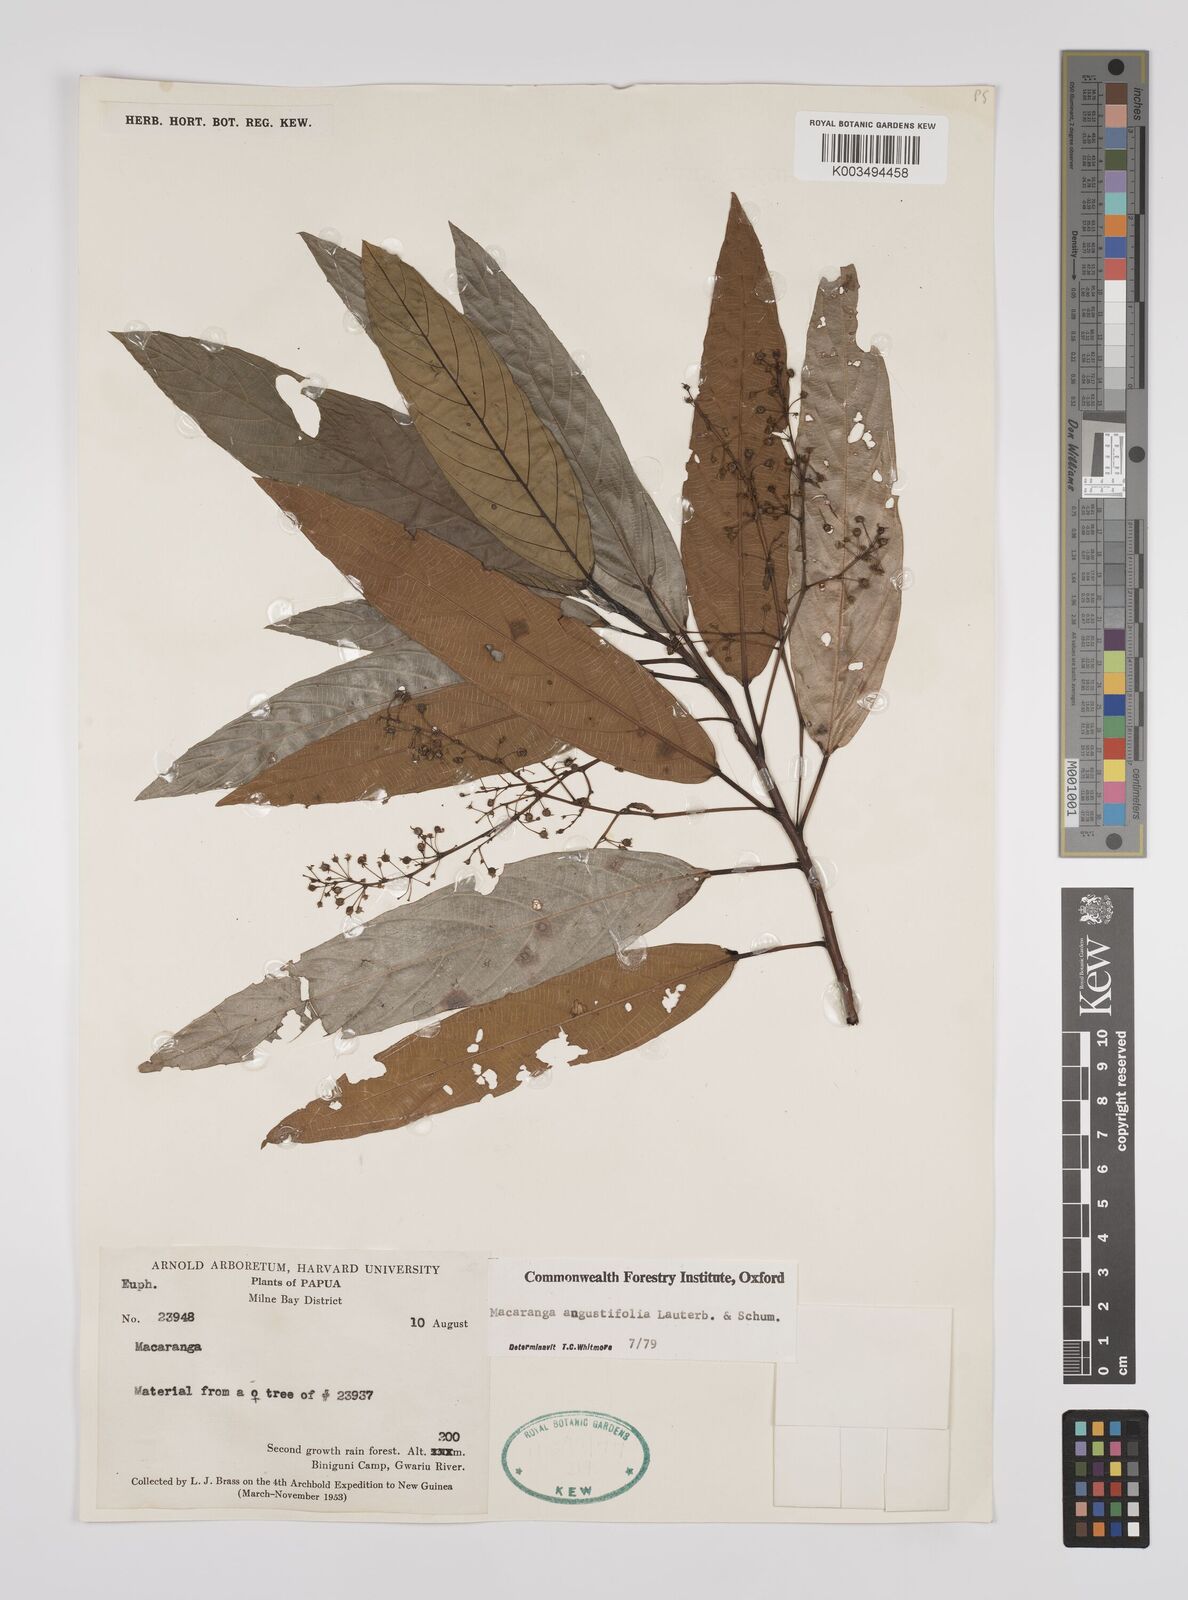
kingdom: Plantae
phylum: Tracheophyta
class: Magnoliopsida
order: Malpighiales
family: Euphorbiaceae
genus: Macaranga
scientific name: Macaranga angustifolia
